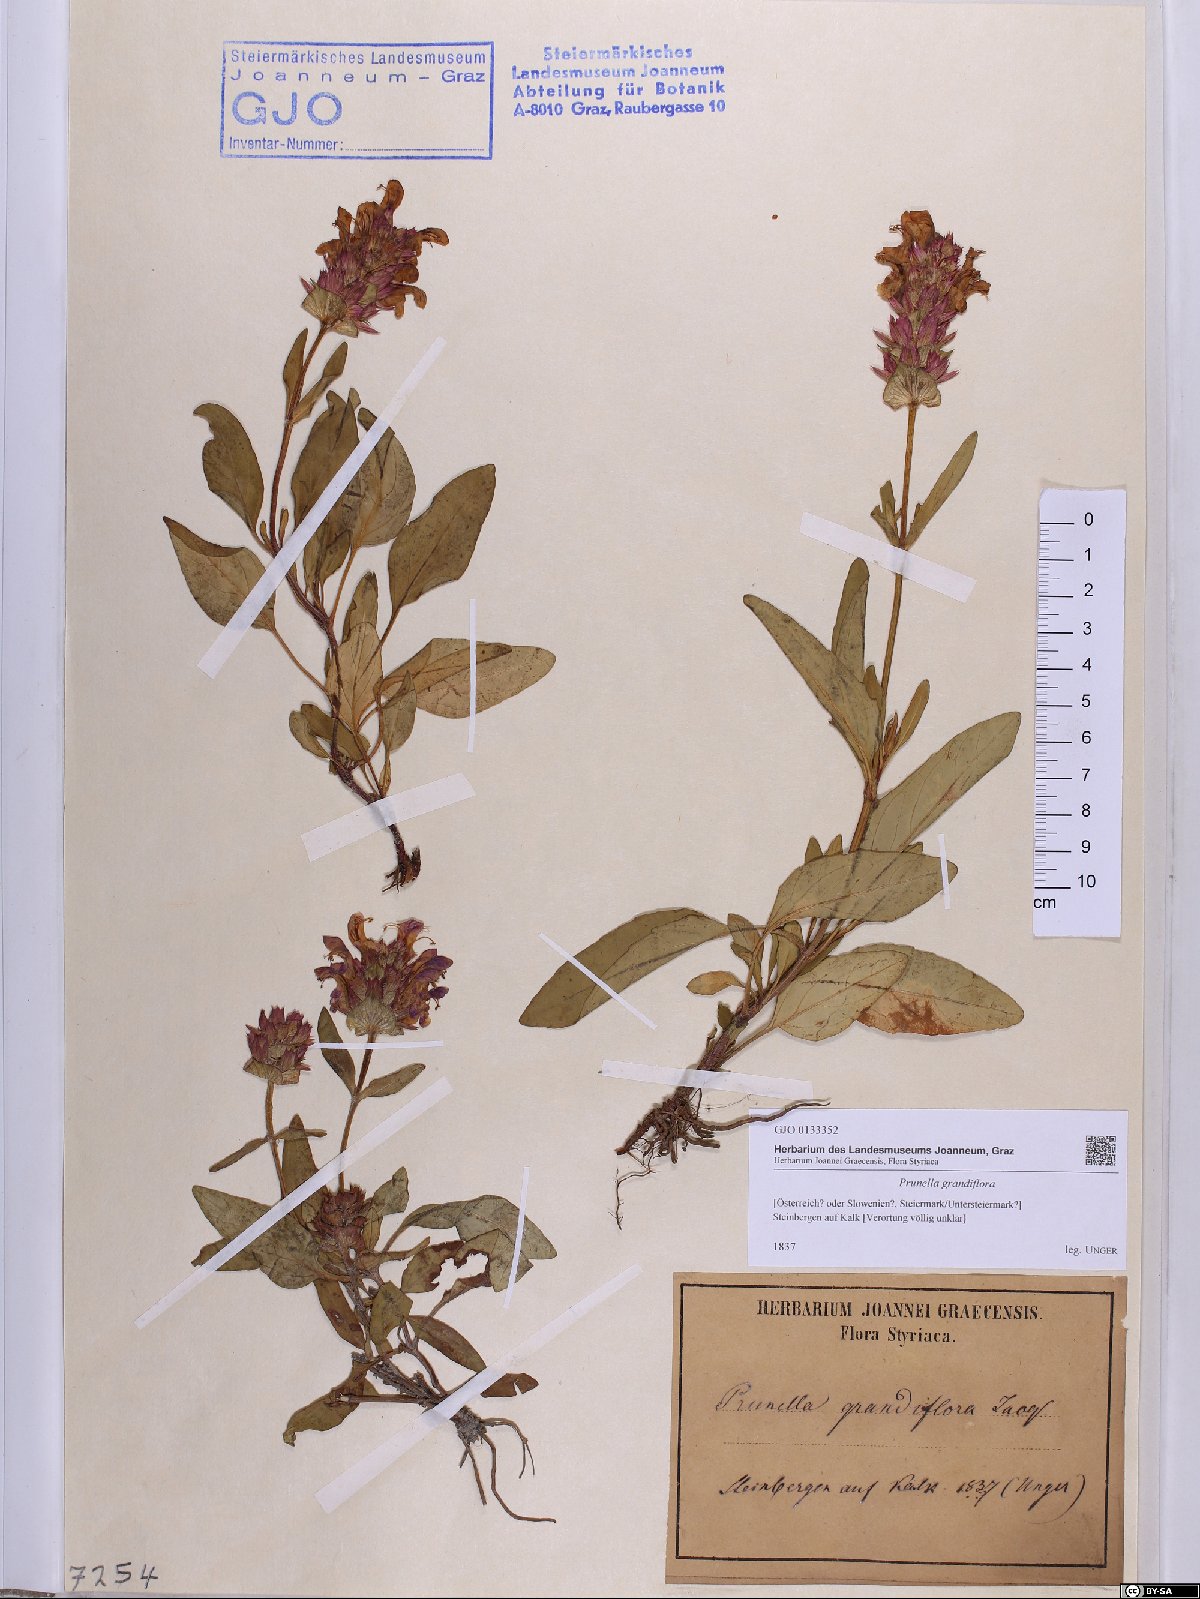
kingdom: Plantae
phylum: Tracheophyta
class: Magnoliopsida
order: Lamiales
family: Lamiaceae
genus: Prunella
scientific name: Prunella grandiflora
